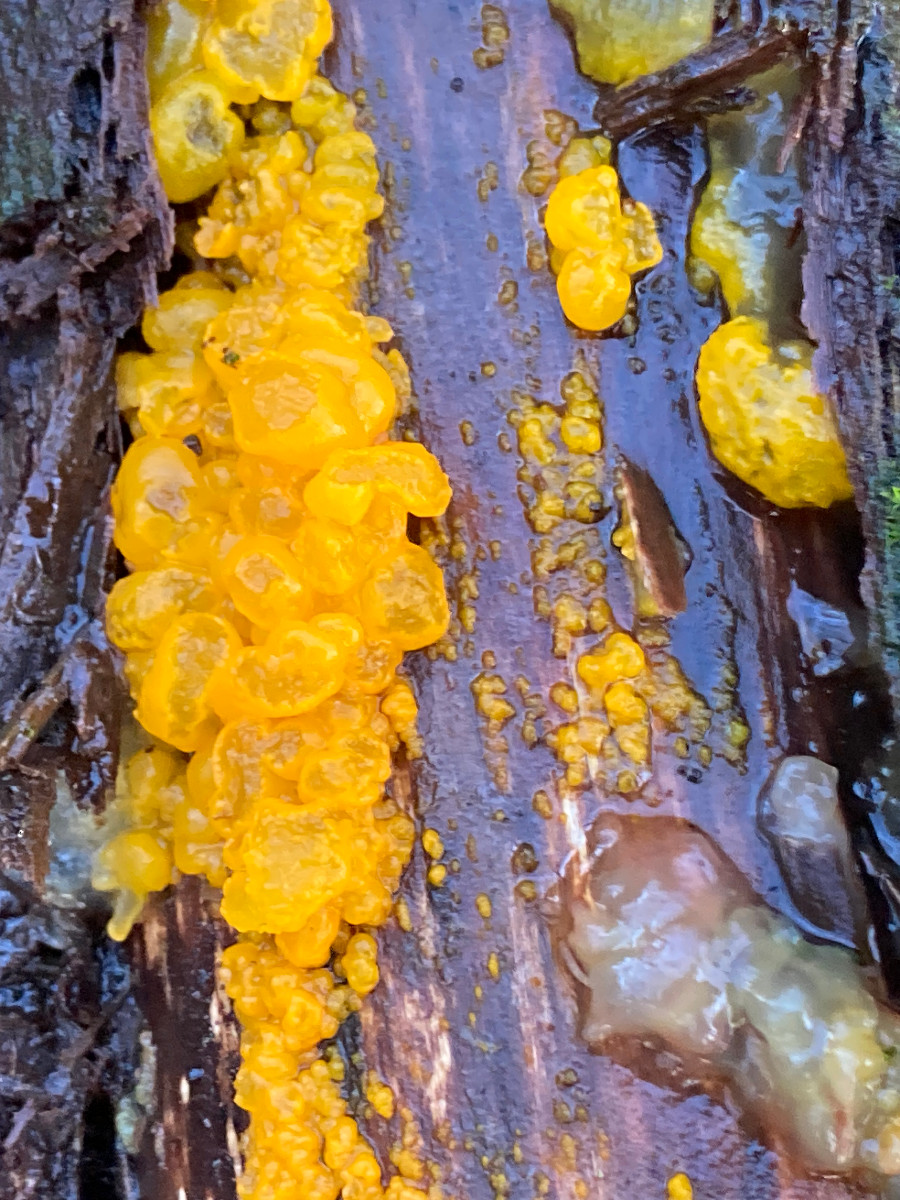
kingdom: Fungi
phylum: Basidiomycota
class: Tremellomycetes
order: Tremellales
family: Tremellaceae
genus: Tremella
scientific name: Tremella mesenterica
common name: gul bævresvamp
